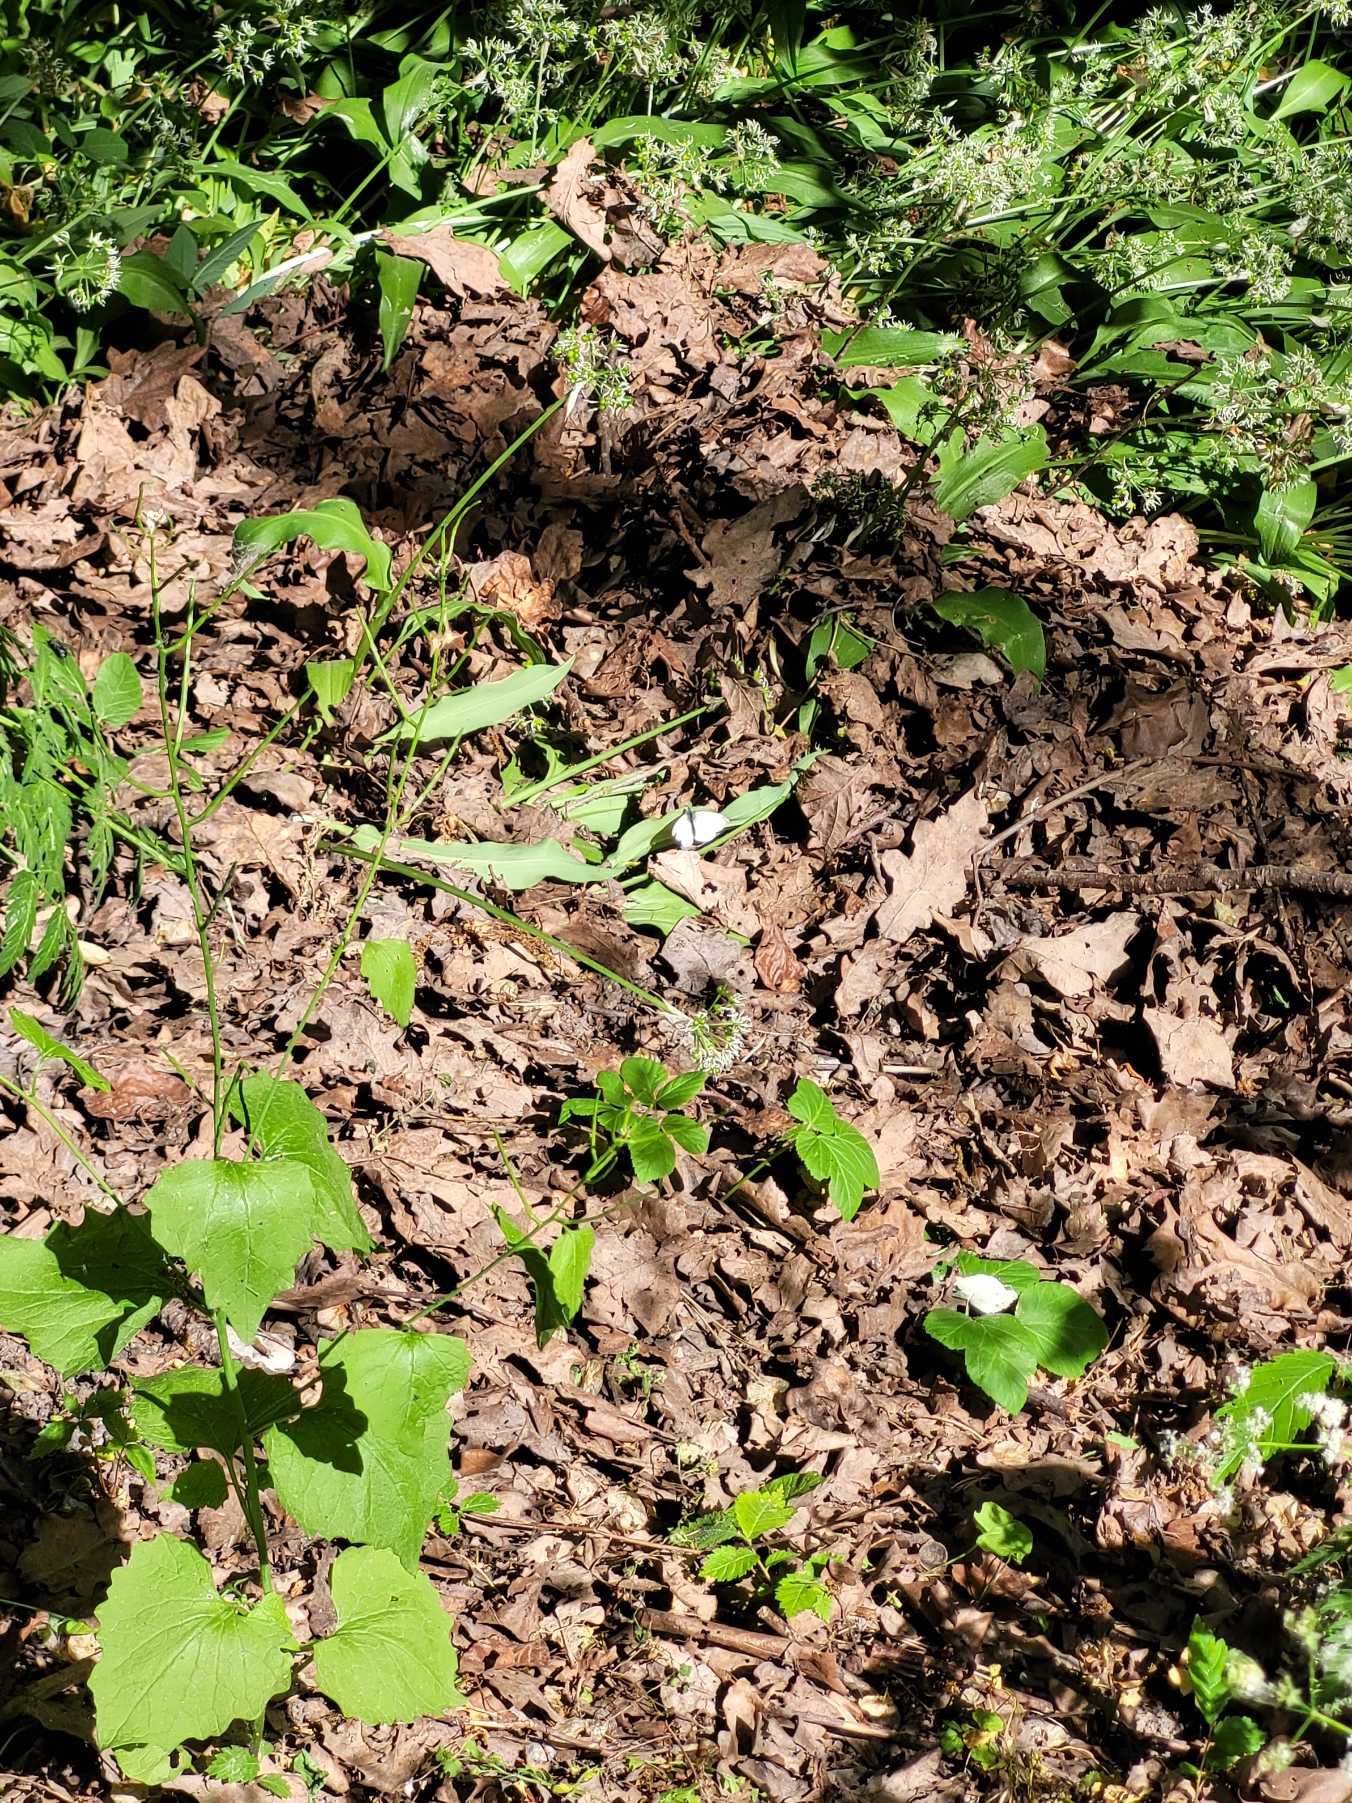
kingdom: Animalia
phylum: Arthropoda
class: Insecta
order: Lepidoptera
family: Pieridae
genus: Pieris
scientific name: Pieris rapae
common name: Lille kålsommerfugl
